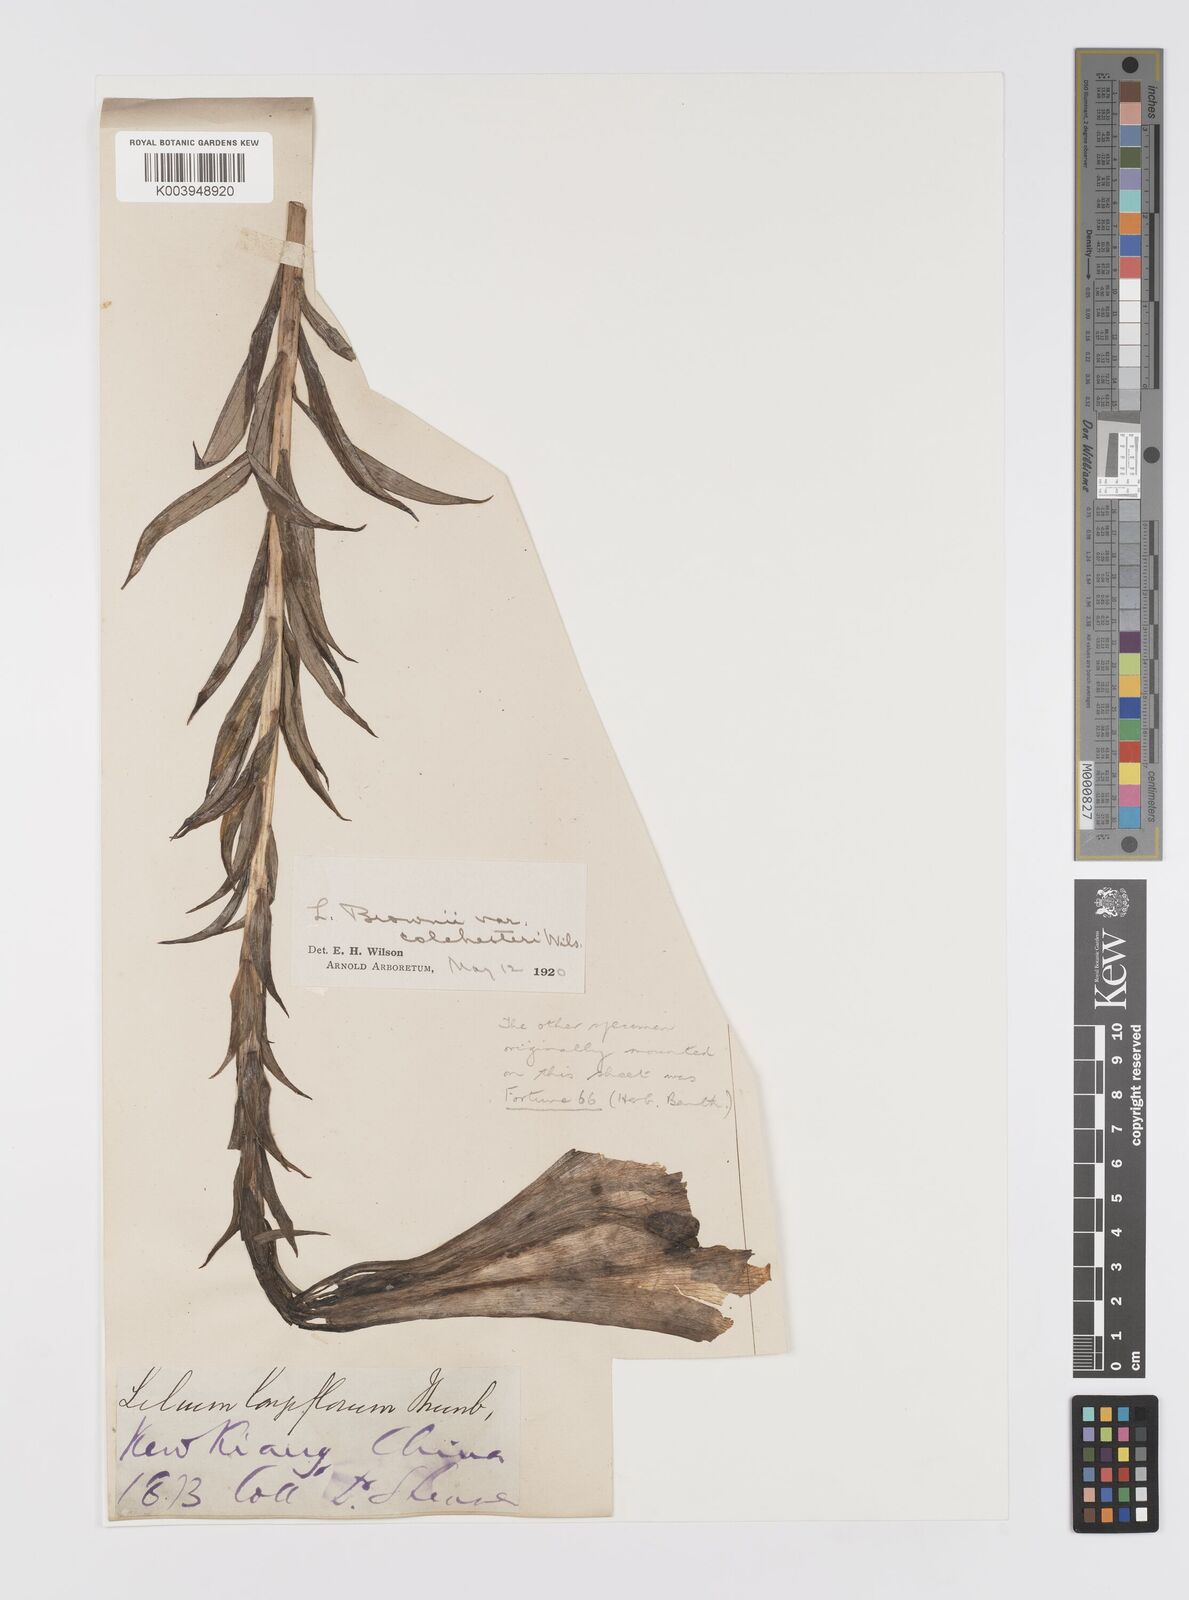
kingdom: Plantae
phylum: Tracheophyta
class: Liliopsida
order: Liliales
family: Liliaceae
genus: Lilium
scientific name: Lilium brownii
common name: Brown's lily
